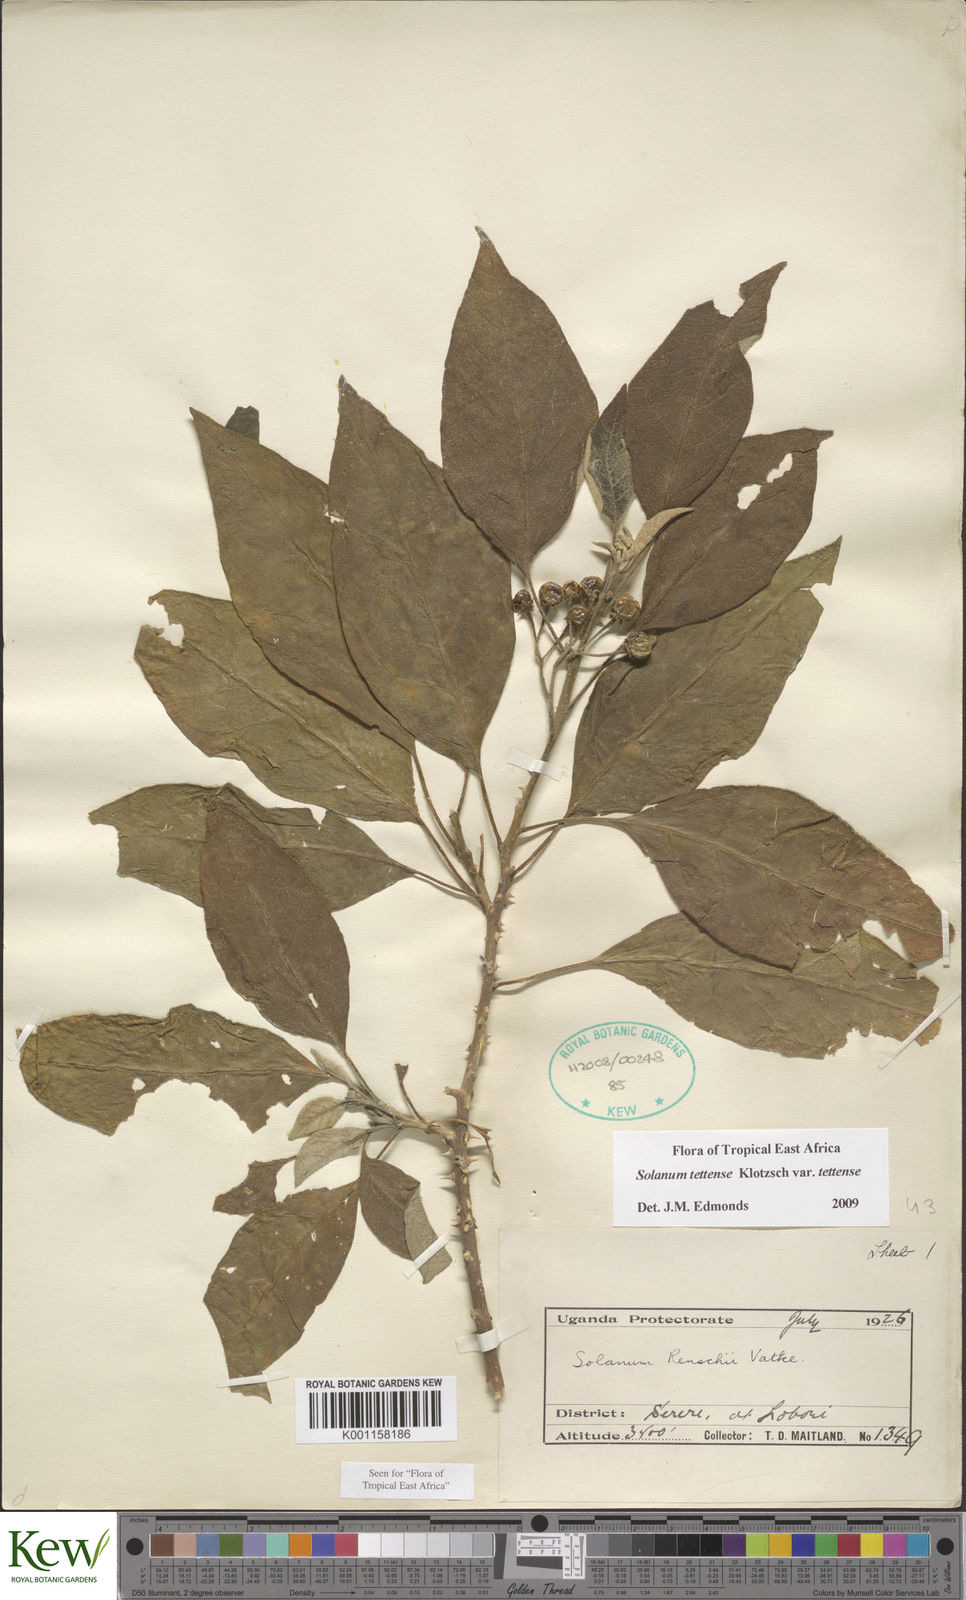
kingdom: Plantae
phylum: Tracheophyta
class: Magnoliopsida
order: Solanales
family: Solanaceae
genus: Solanum
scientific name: Solanum tettense
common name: Mozambique bitter apple
